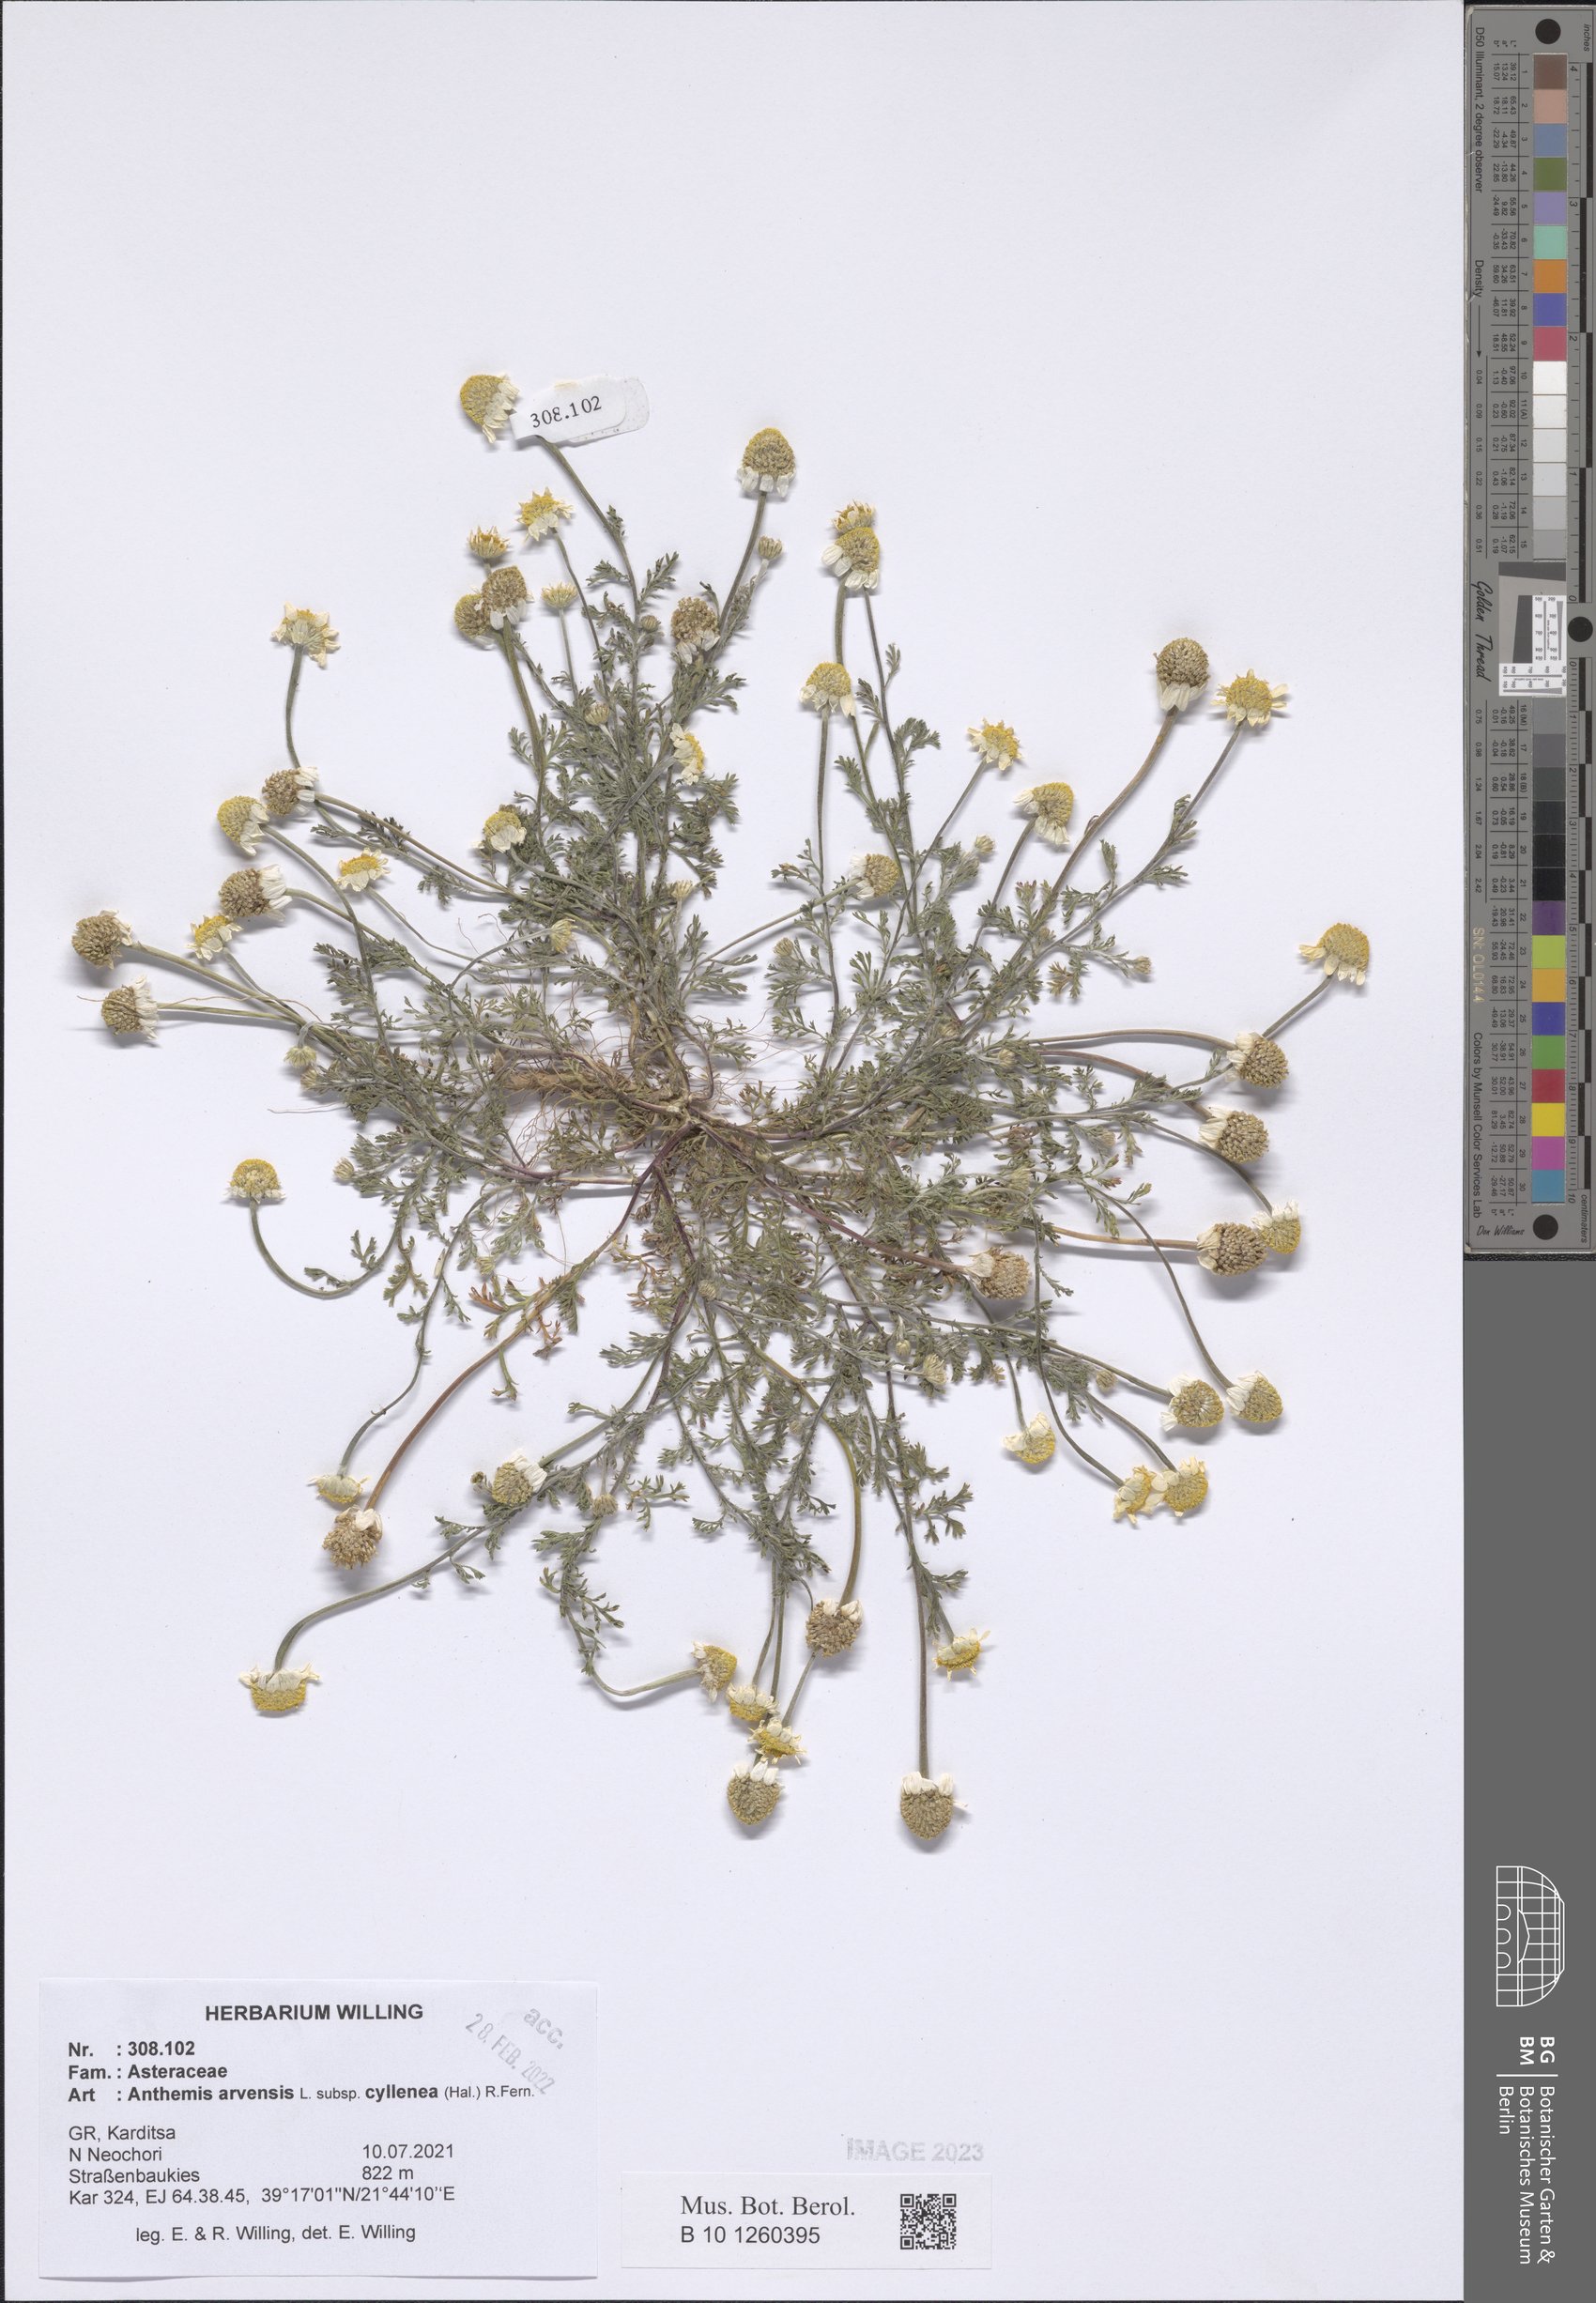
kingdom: Plantae
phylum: Tracheophyta
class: Magnoliopsida
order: Asterales
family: Asteraceae
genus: Anthemis
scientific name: Anthemis arvensis
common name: Corn chamomile
